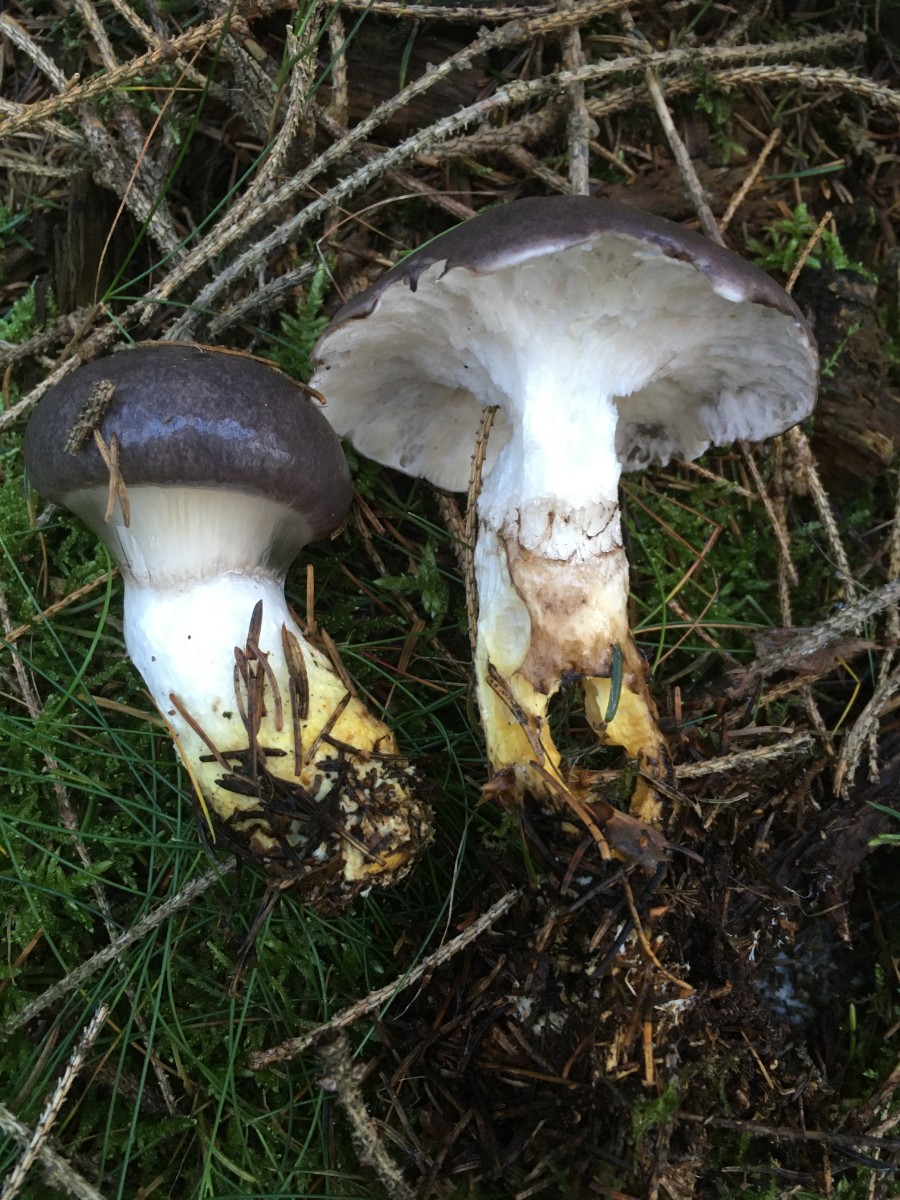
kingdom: Fungi
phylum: Basidiomycota
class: Agaricomycetes
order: Boletales
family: Gomphidiaceae
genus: Gomphidius
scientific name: Gomphidius glutinosus
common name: grå slimslør
